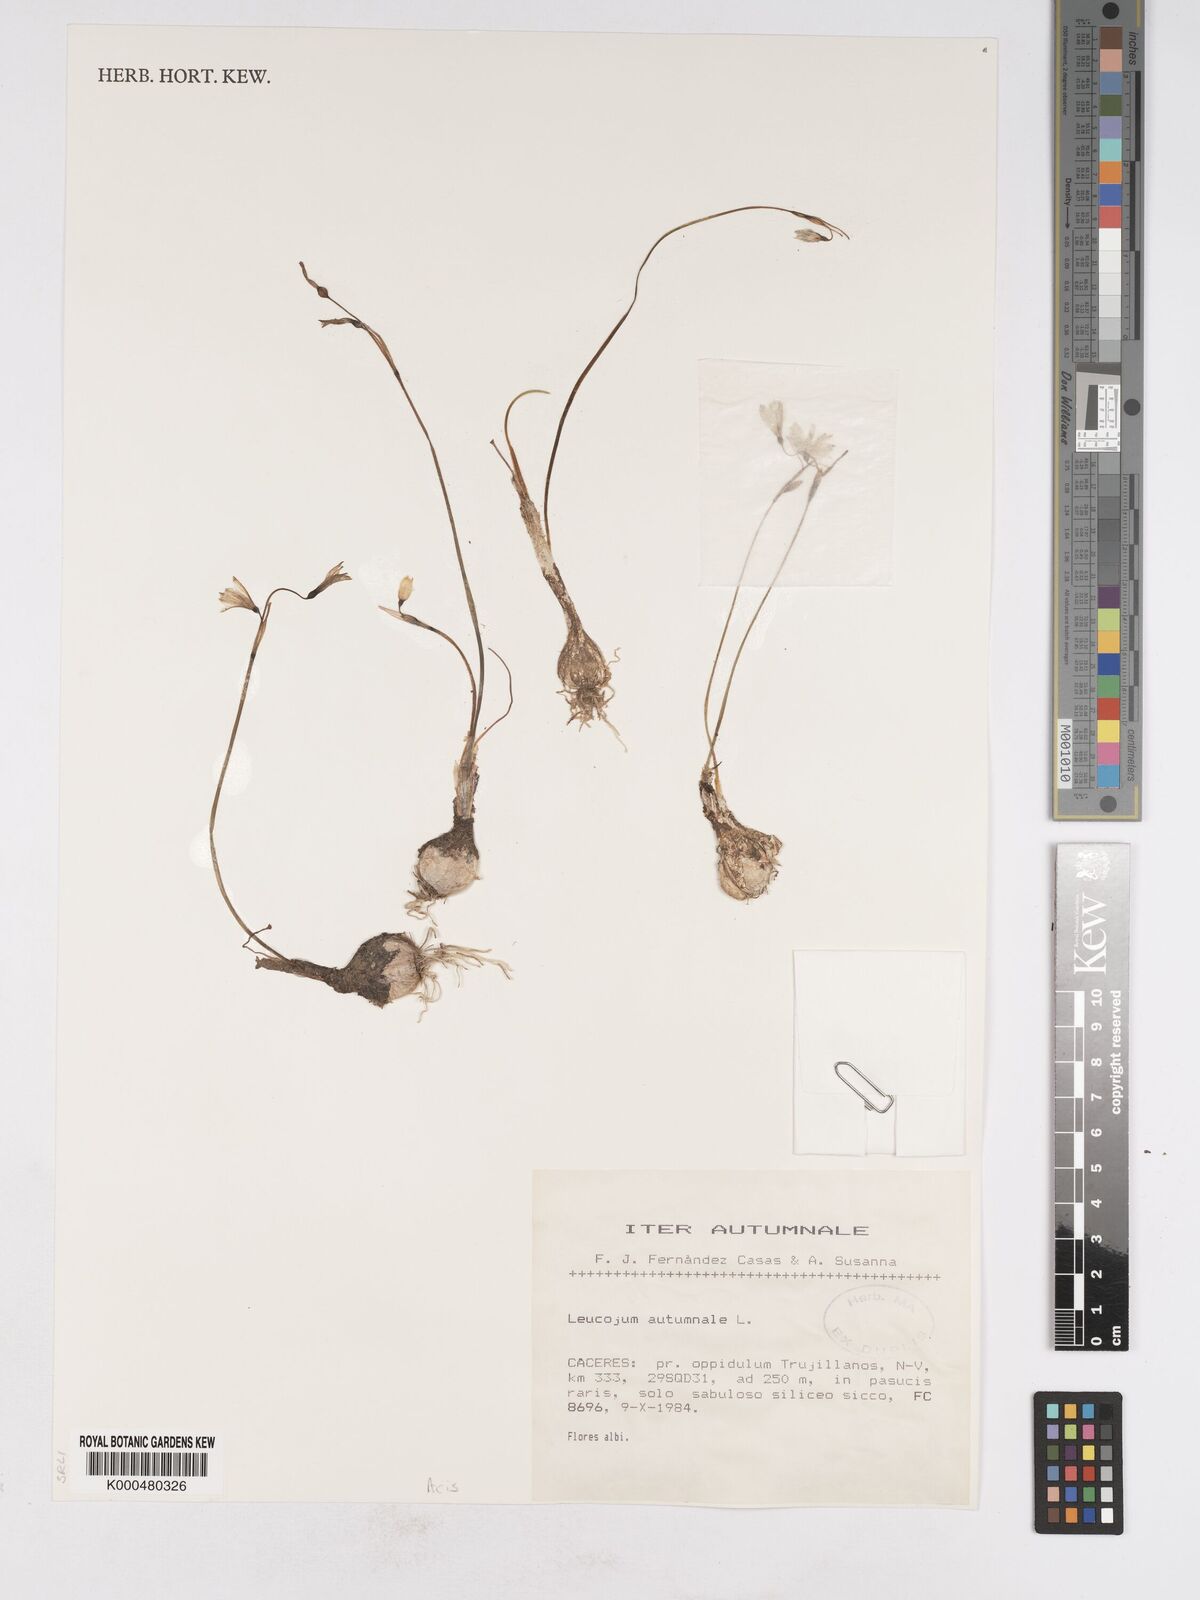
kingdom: Plantae
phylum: Tracheophyta
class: Liliopsida
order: Asparagales
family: Amaryllidaceae
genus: Acis
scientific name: Acis autumnalis
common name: Autumn snowflake
